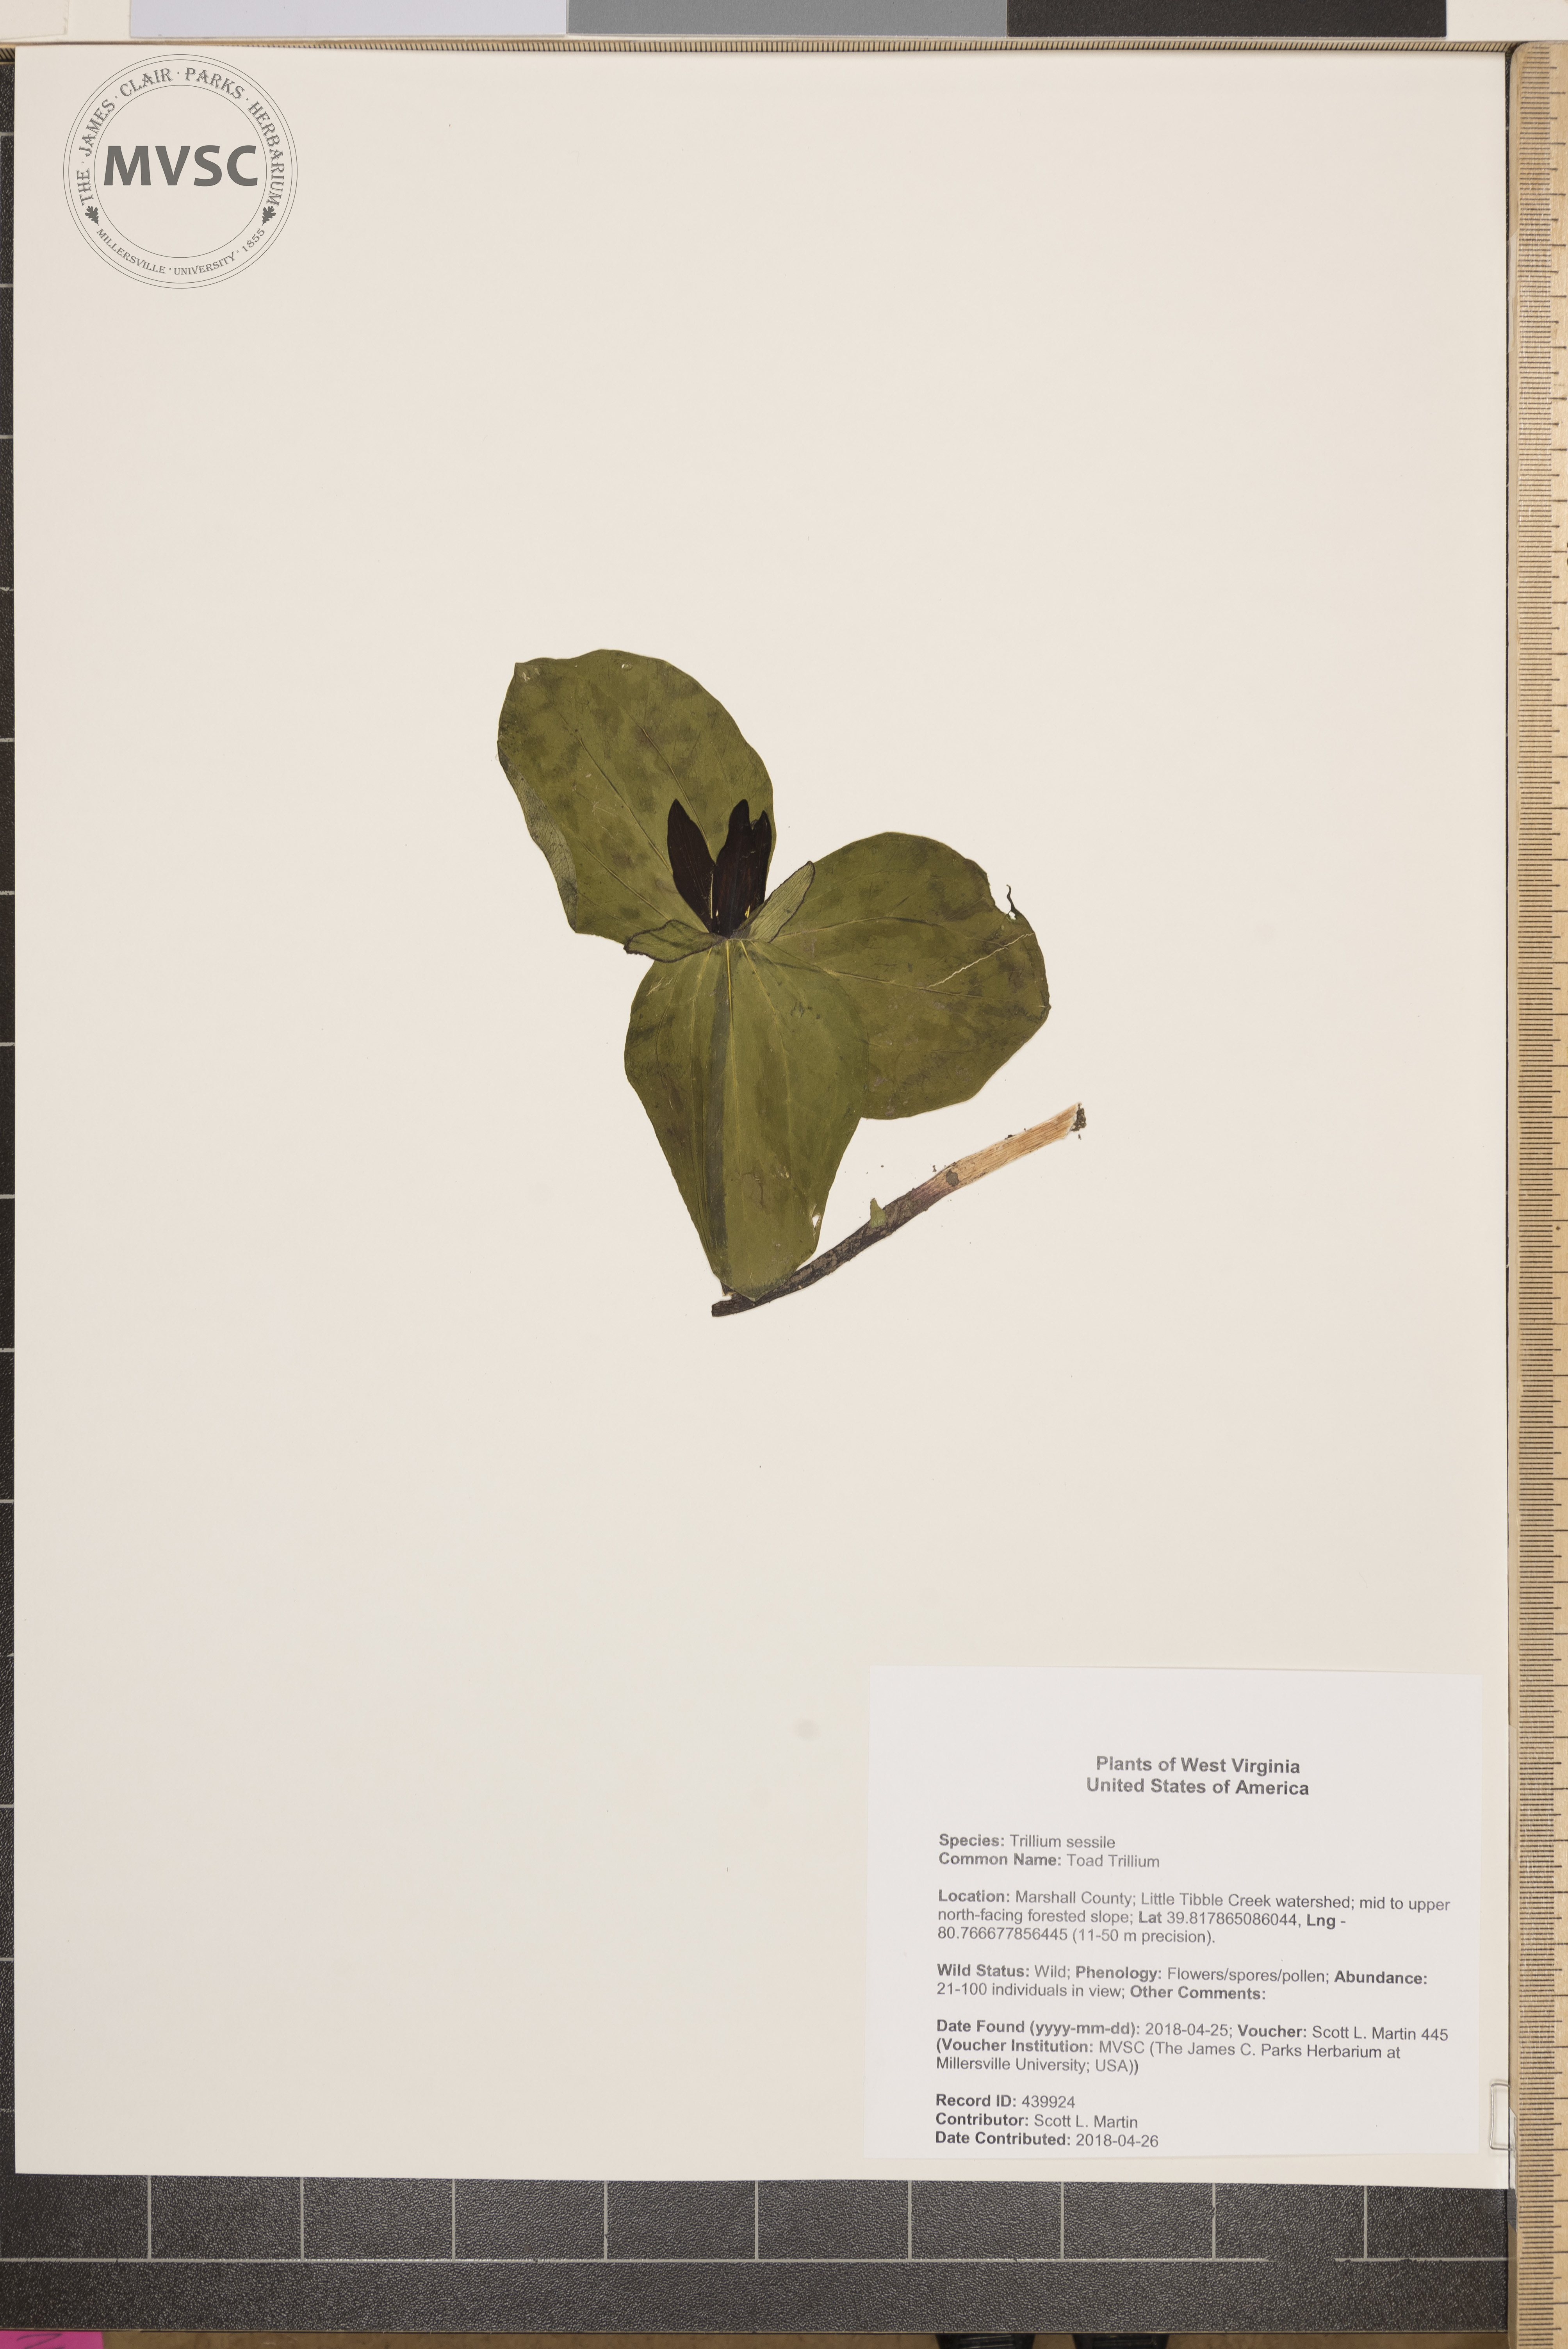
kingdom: Plantae
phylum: Tracheophyta
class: Liliopsida
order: Liliales
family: Melanthiaceae
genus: Trillium
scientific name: Trillium sessile
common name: Toad Trillium
